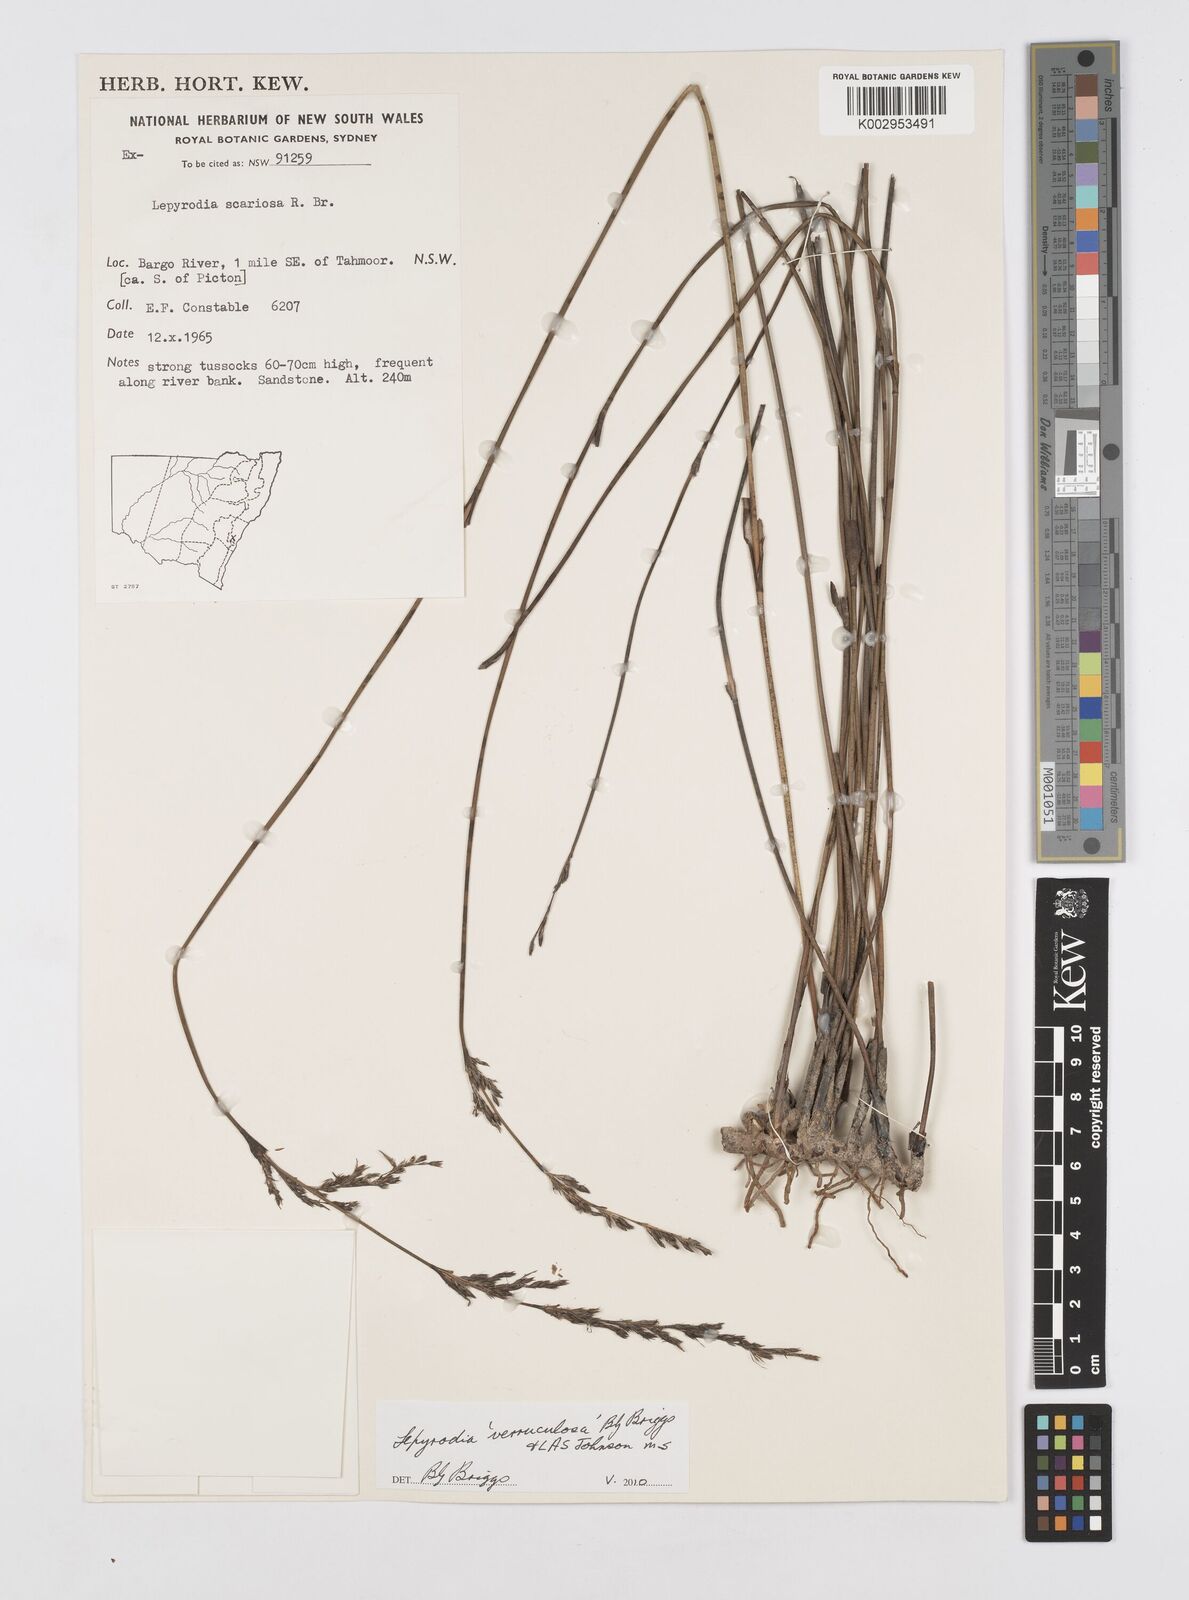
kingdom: Plantae
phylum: Tracheophyta
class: Liliopsida
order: Poales
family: Restionaceae
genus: Lepyrodia
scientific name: Lepyrodia verruculosa
